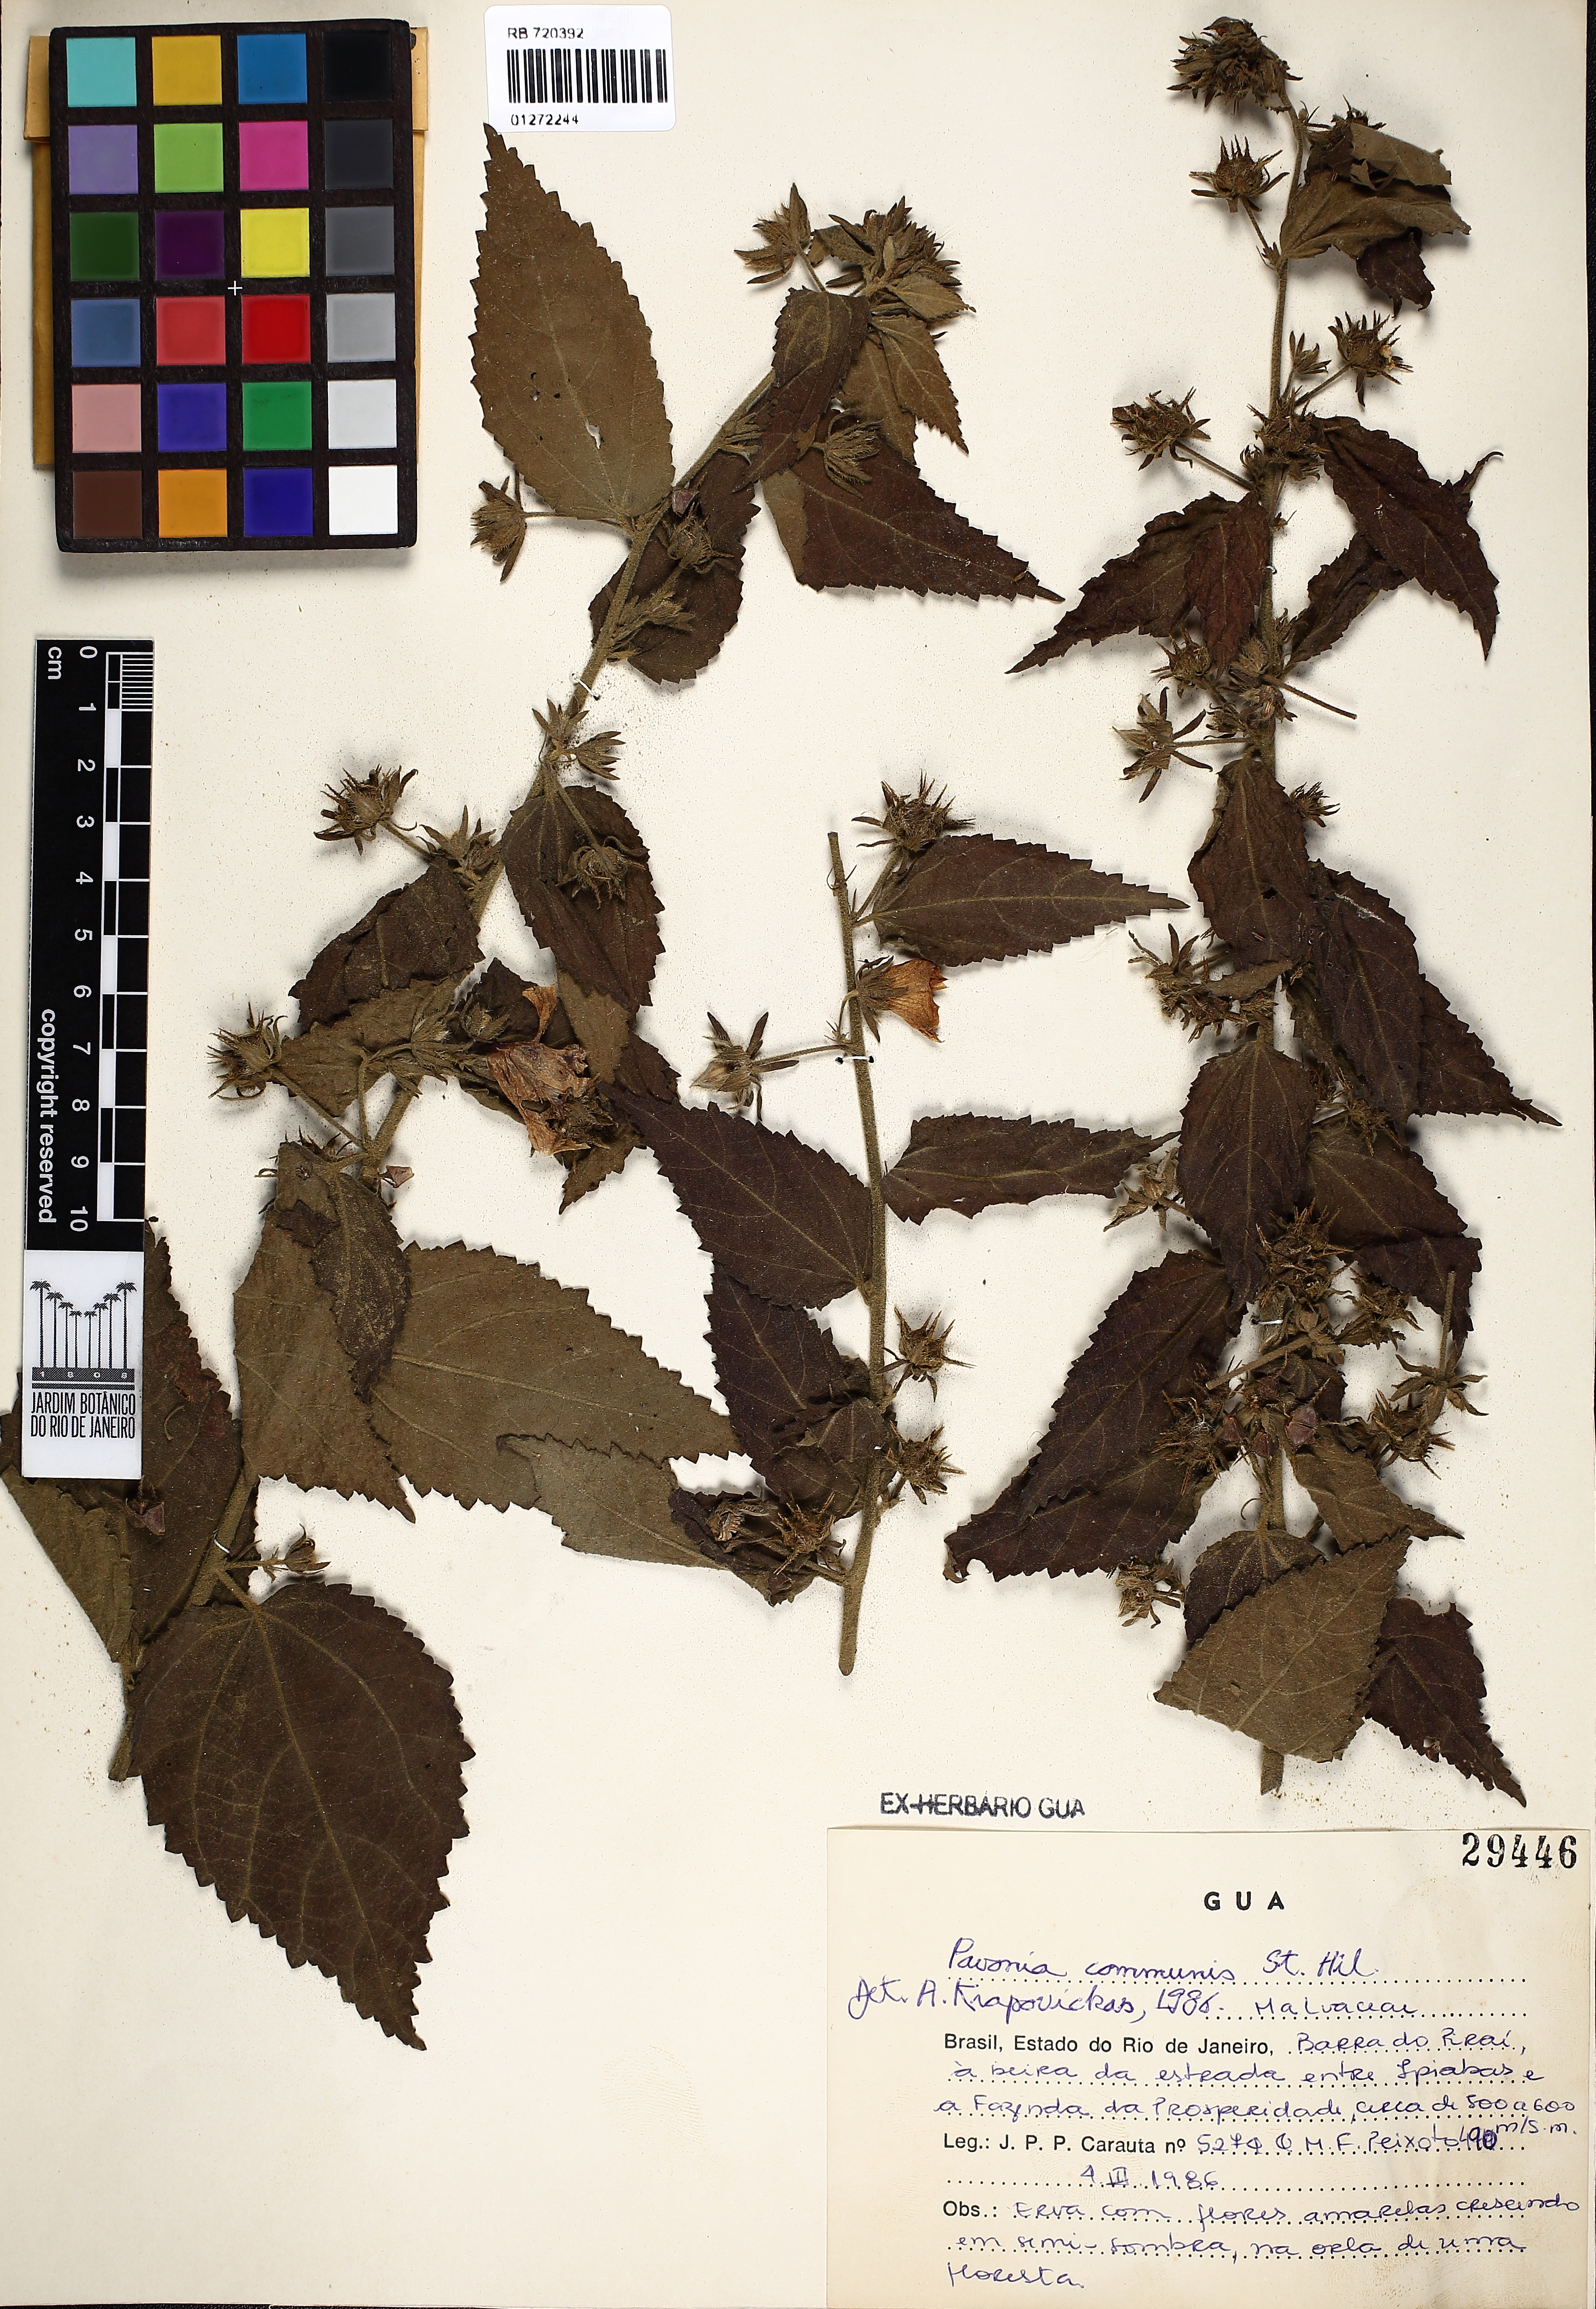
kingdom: Plantae
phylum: Tracheophyta
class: Magnoliopsida
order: Malvales
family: Malvaceae
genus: Pavonia
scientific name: Pavonia communis
